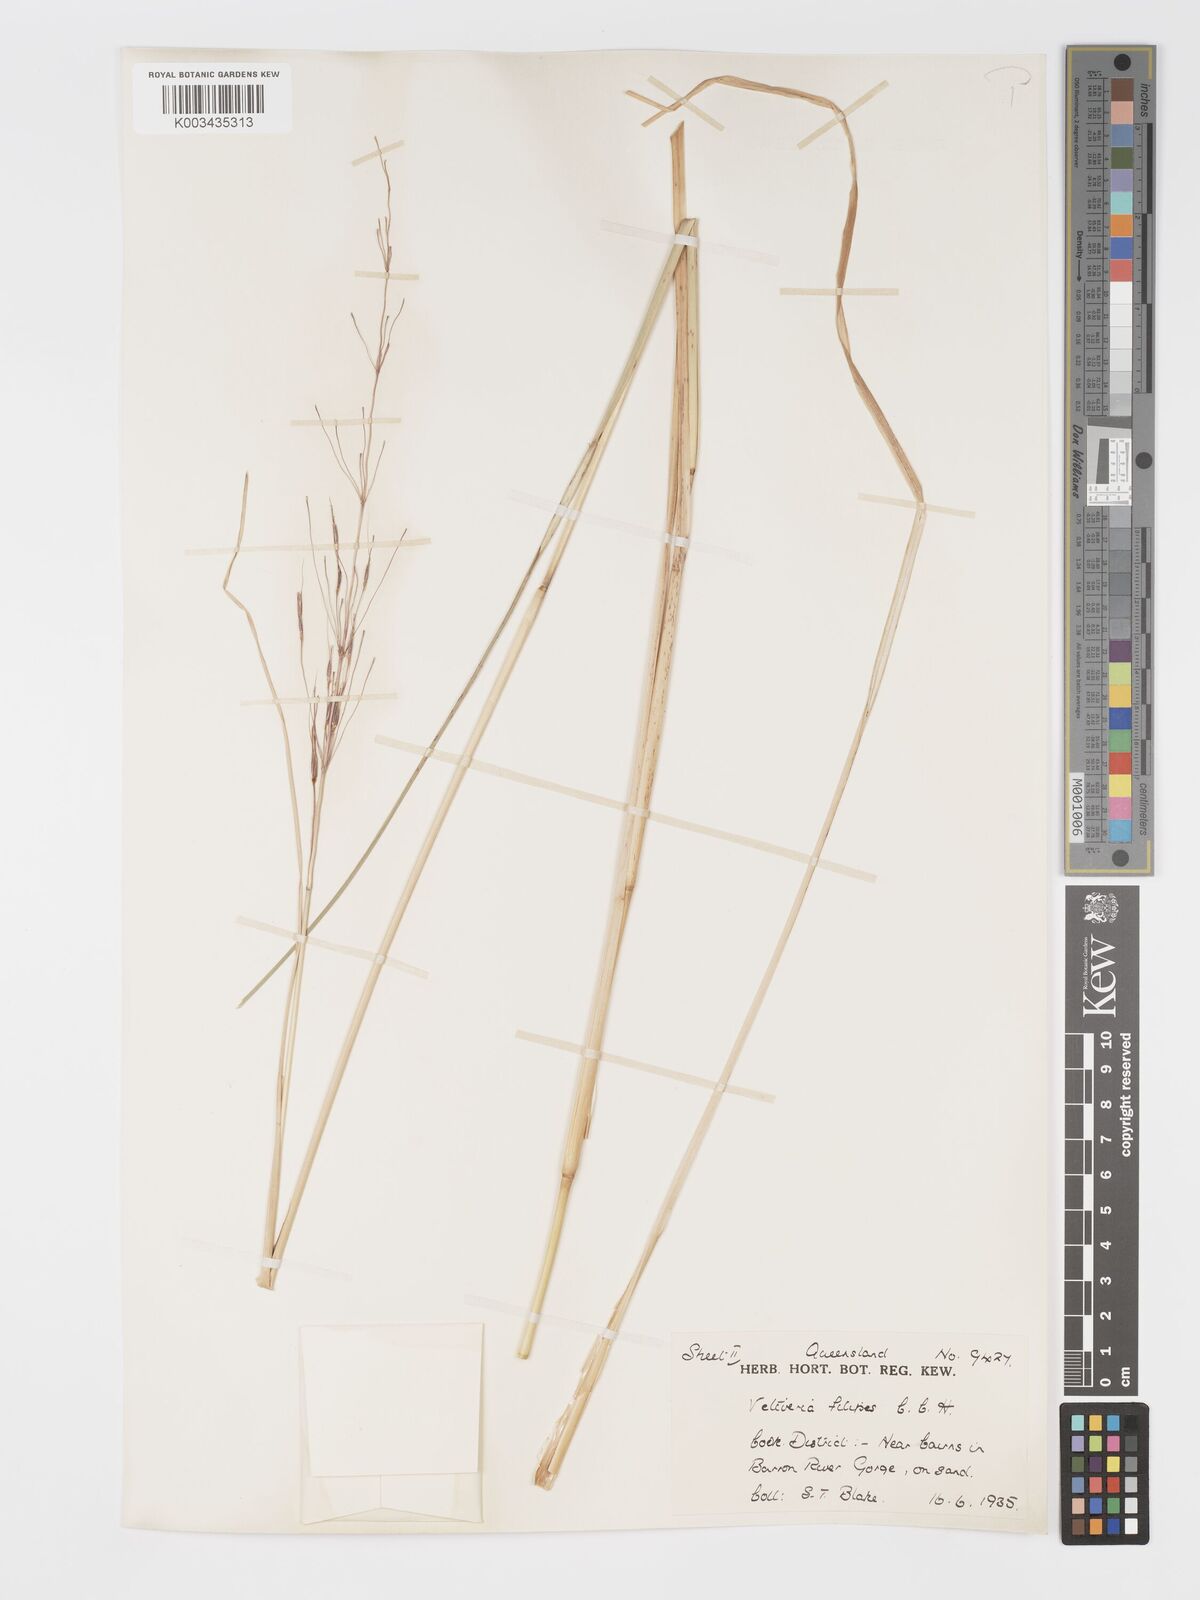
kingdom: Plantae
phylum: Tracheophyta
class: Liliopsida
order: Poales
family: Poaceae
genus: Chrysopogon
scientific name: Chrysopogon filipes
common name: Australian vetiver
